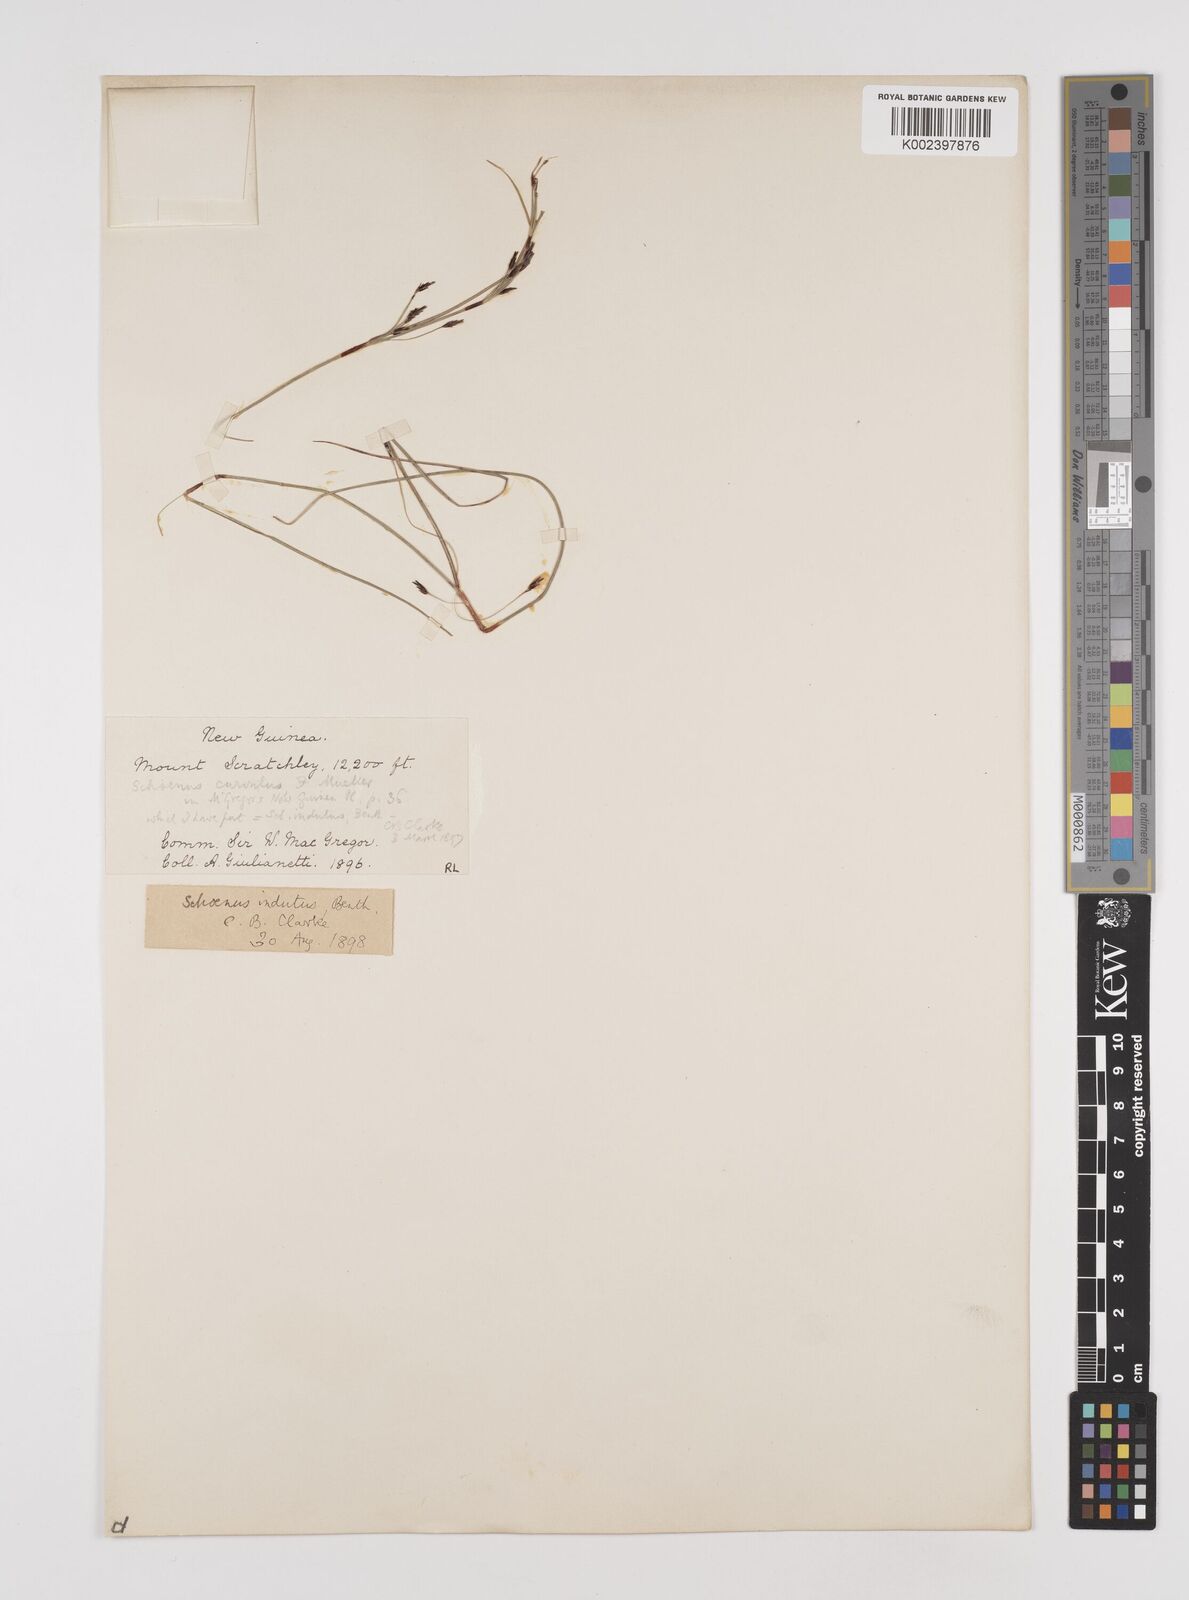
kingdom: Plantae
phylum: Tracheophyta
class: Liliopsida
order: Poales
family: Cyperaceae
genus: Schoenus
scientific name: Schoenus curvulus
